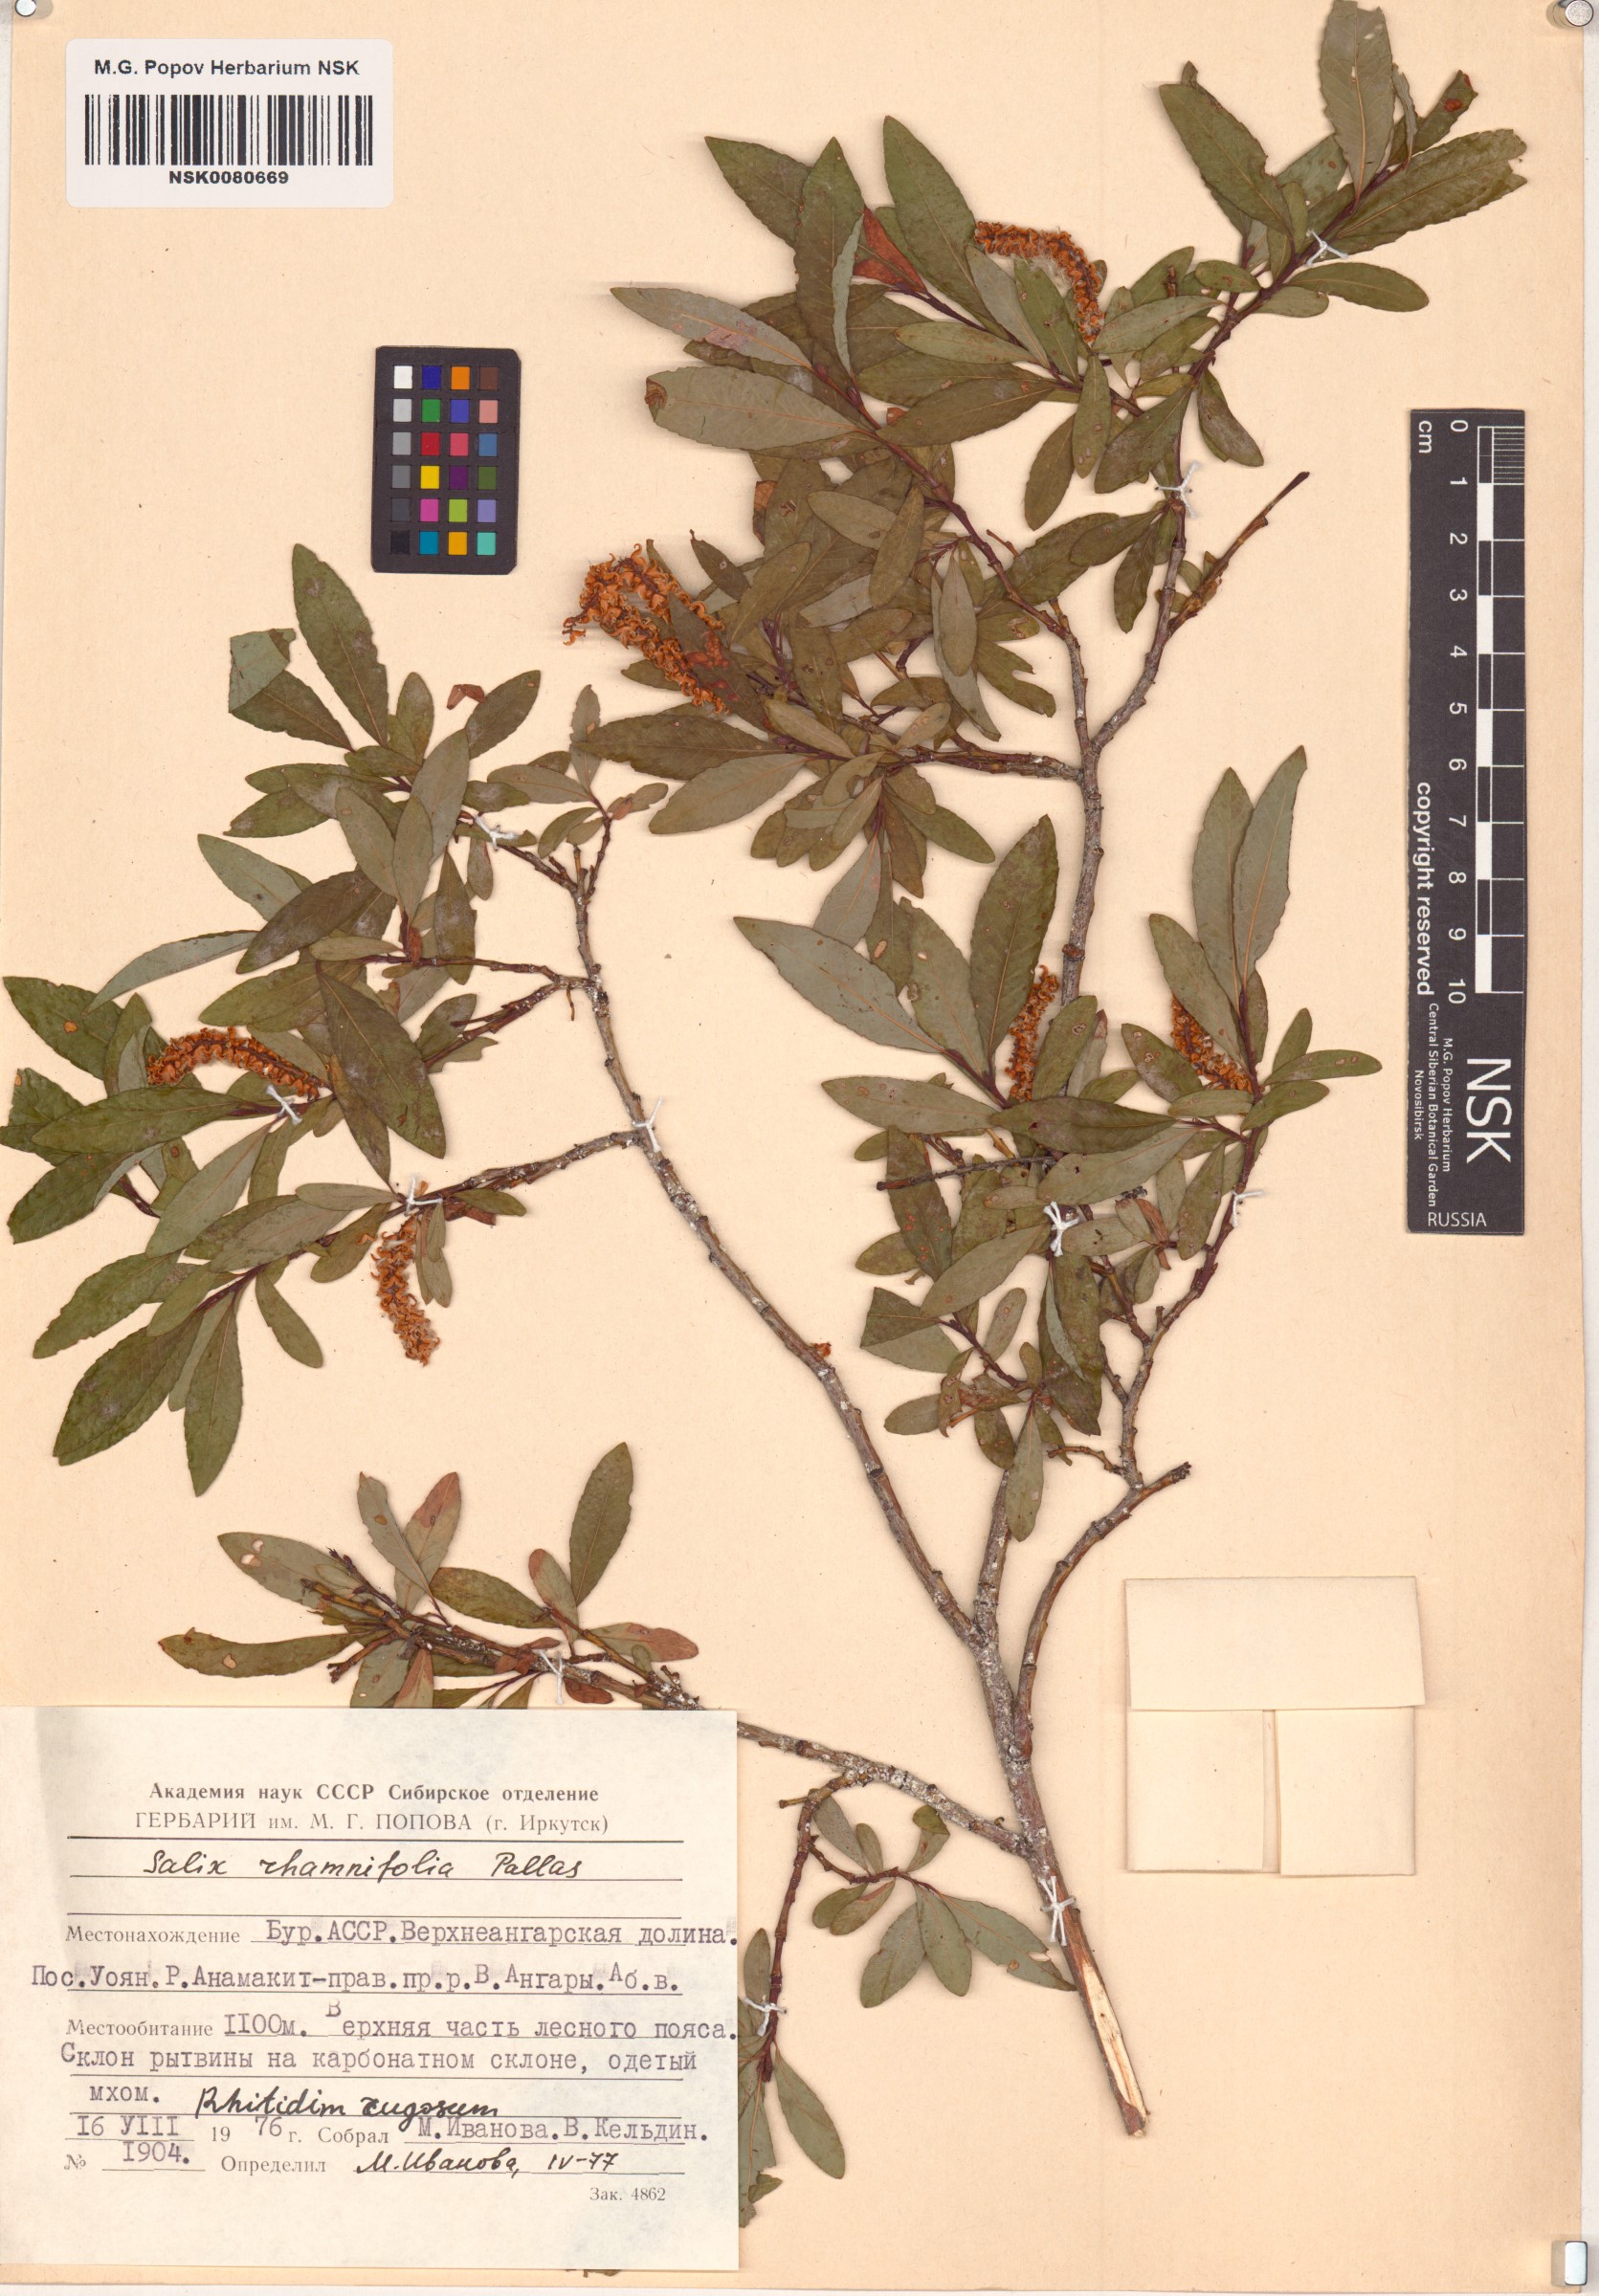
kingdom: Plantae
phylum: Tracheophyta
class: Magnoliopsida
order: Malpighiales
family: Salicaceae
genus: Salix
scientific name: Salix rhamnifolia
